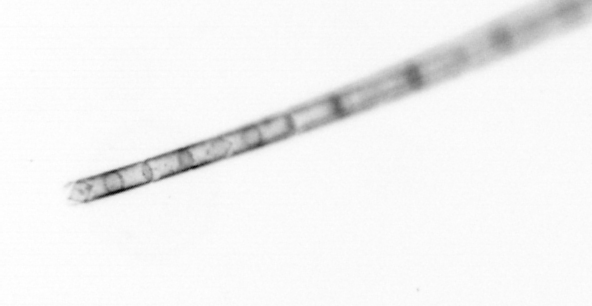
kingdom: Chromista
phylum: Ochrophyta
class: Bacillariophyceae
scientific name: Bacillariophyceae
